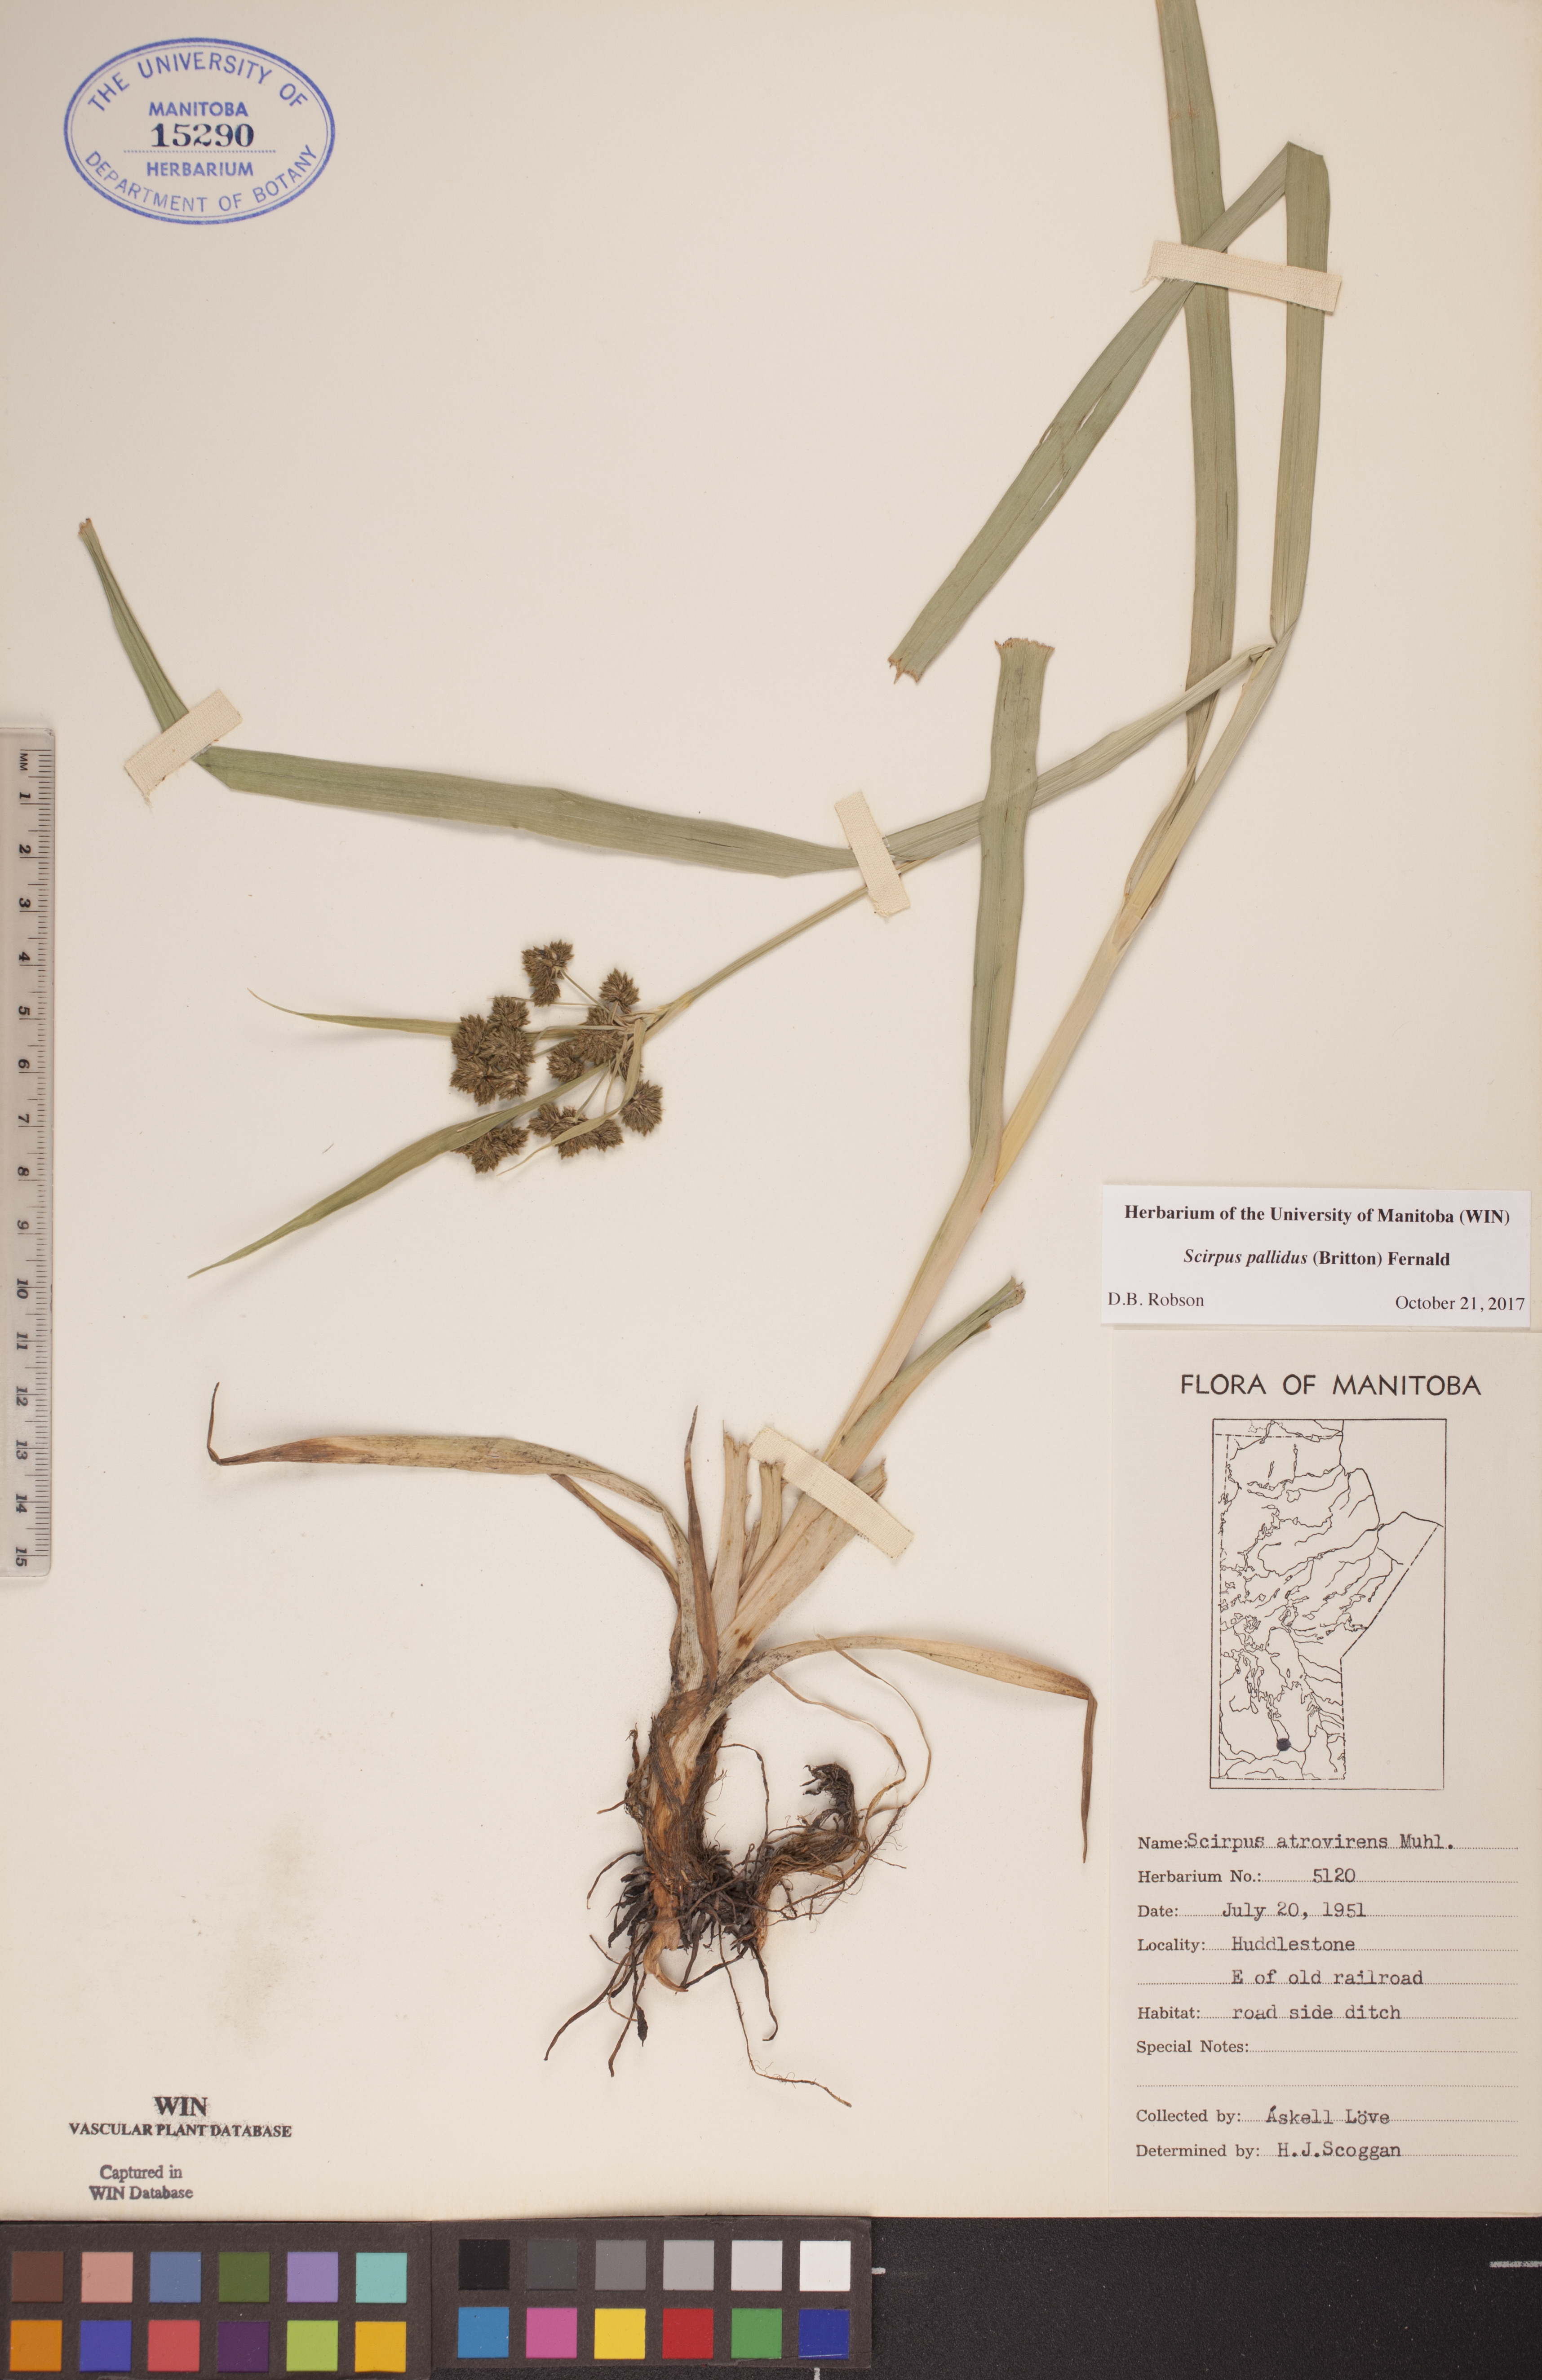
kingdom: Plantae
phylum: Tracheophyta
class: Liliopsida
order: Poales
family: Cyperaceae
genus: Scirpus
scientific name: Scirpus pallidus
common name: Cloaked bulrush
